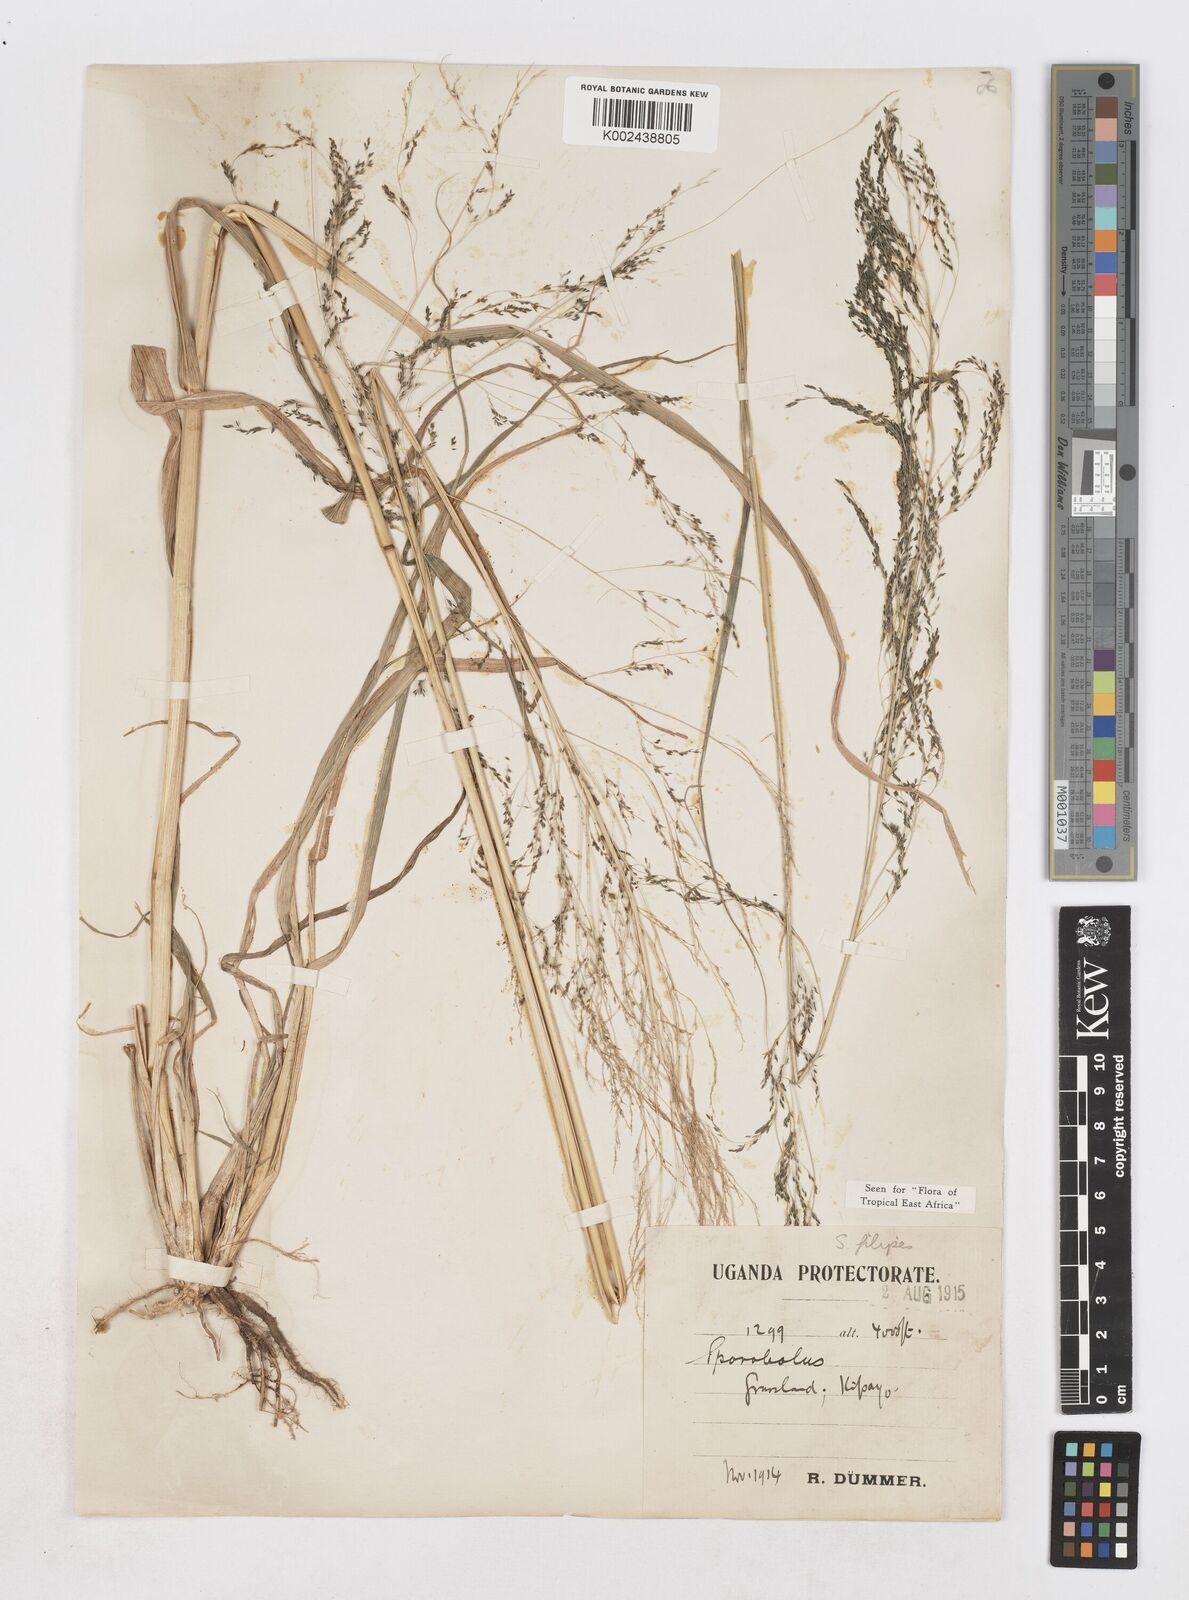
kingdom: Plantae
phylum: Tracheophyta
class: Liliopsida
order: Poales
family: Poaceae
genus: Sporobolus
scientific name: Sporobolus agrostoides
